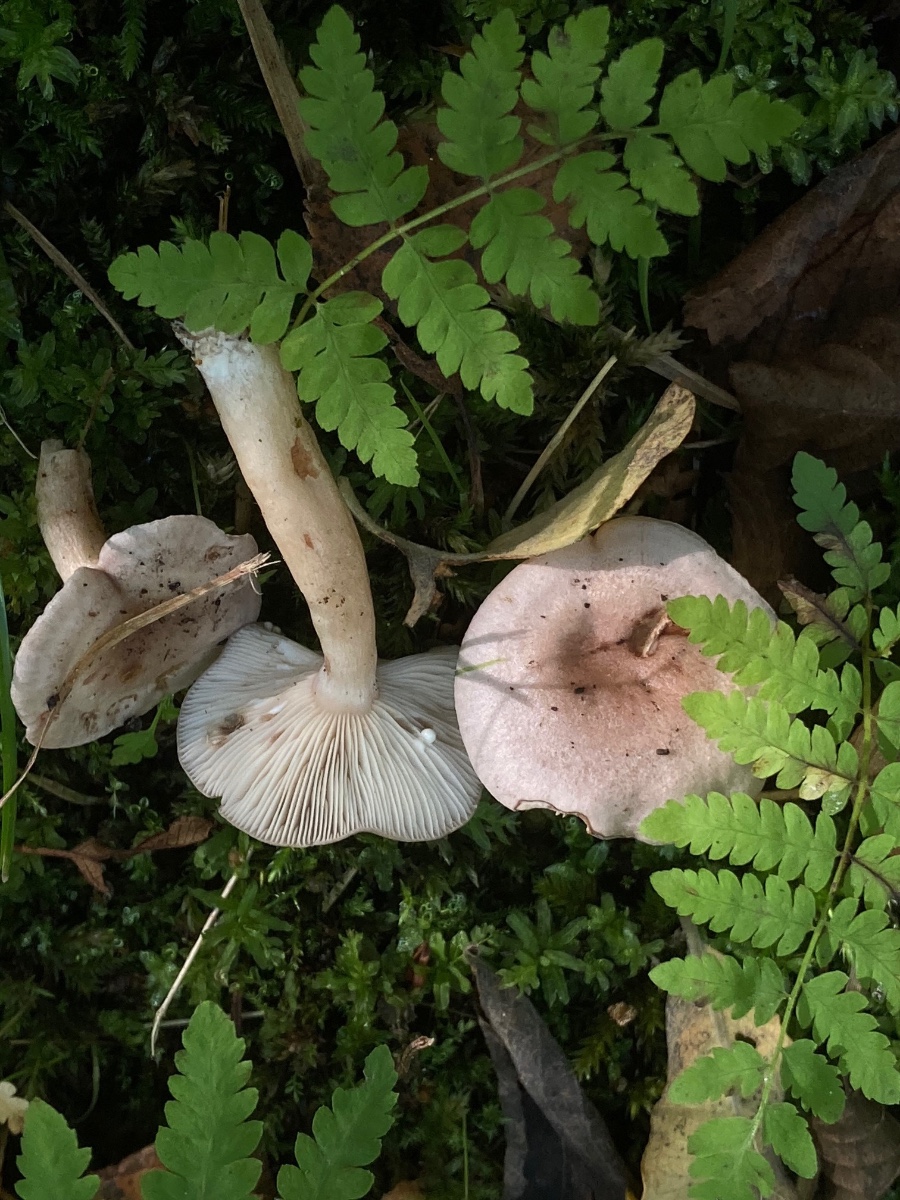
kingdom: Fungi
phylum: Basidiomycota
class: Agaricomycetes
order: Russulales
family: Russulaceae
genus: Lactarius
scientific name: Lactarius vietus
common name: violetgrå mælkehat
